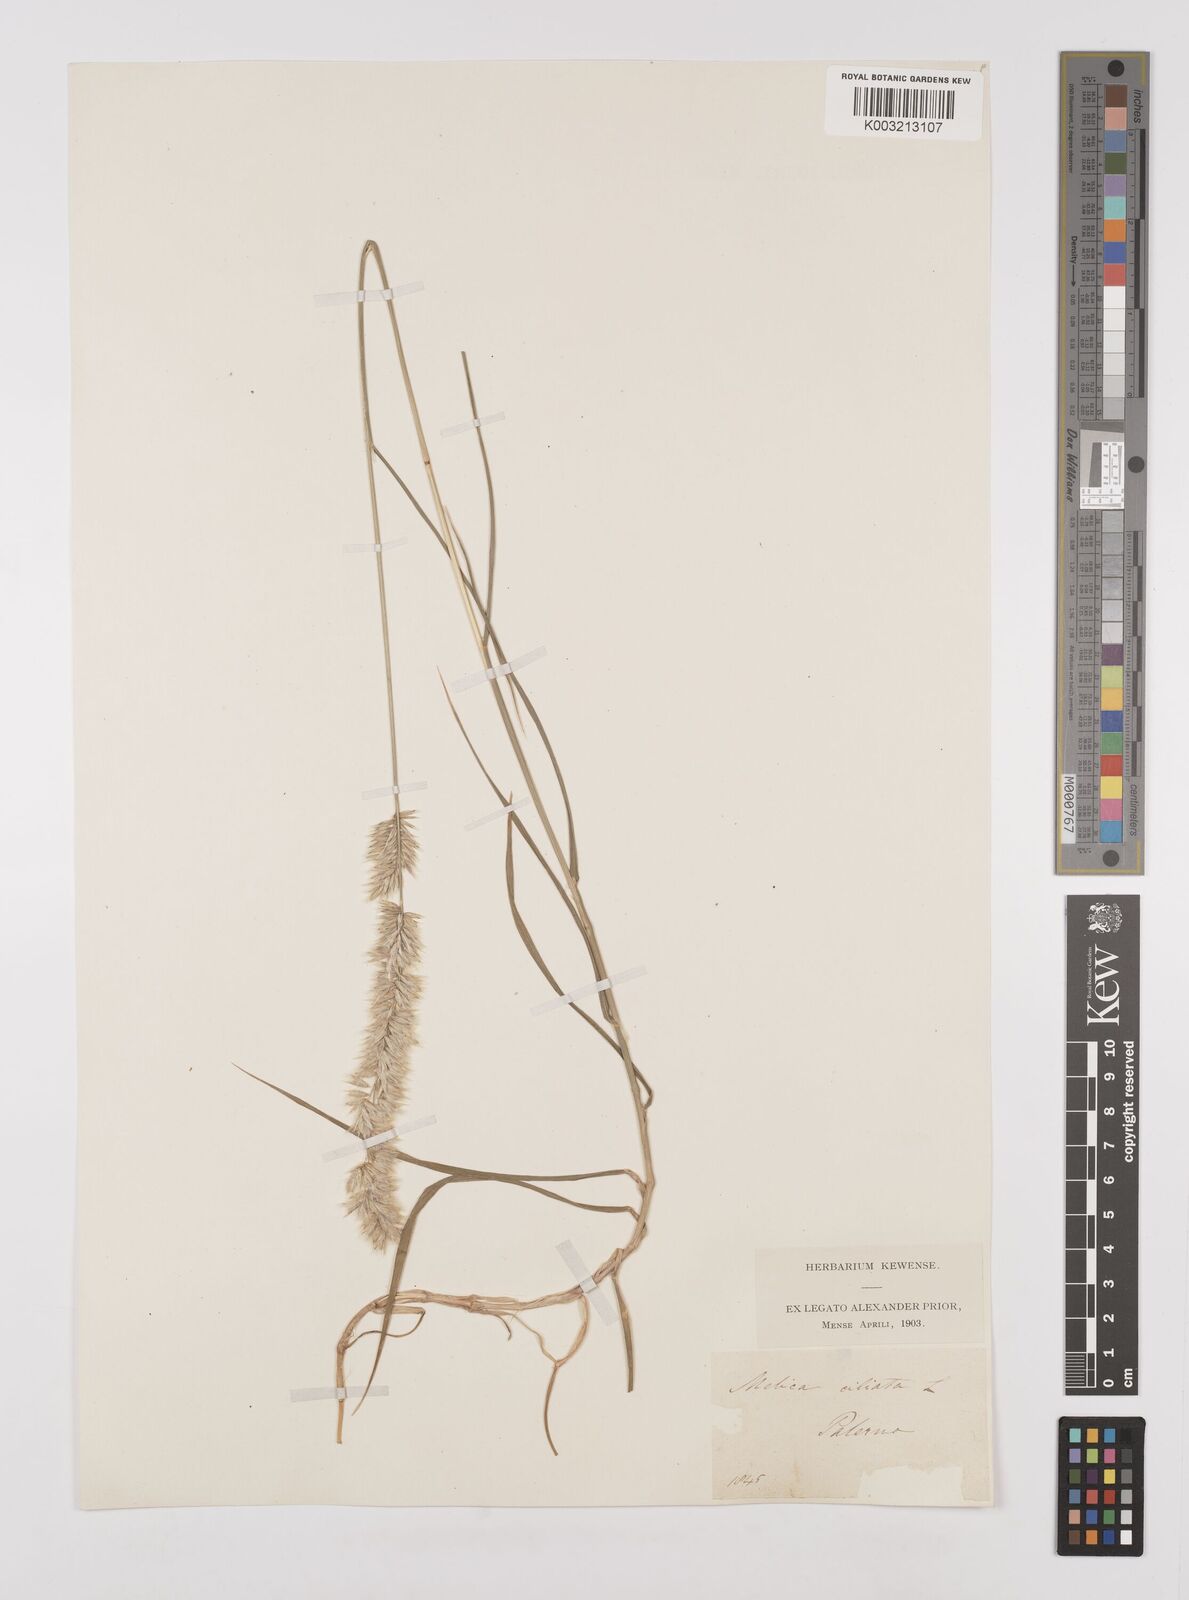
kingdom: Plantae
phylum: Tracheophyta
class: Liliopsida
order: Poales
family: Poaceae
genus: Melica
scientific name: Melica ciliata
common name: Hairy melicgrass
